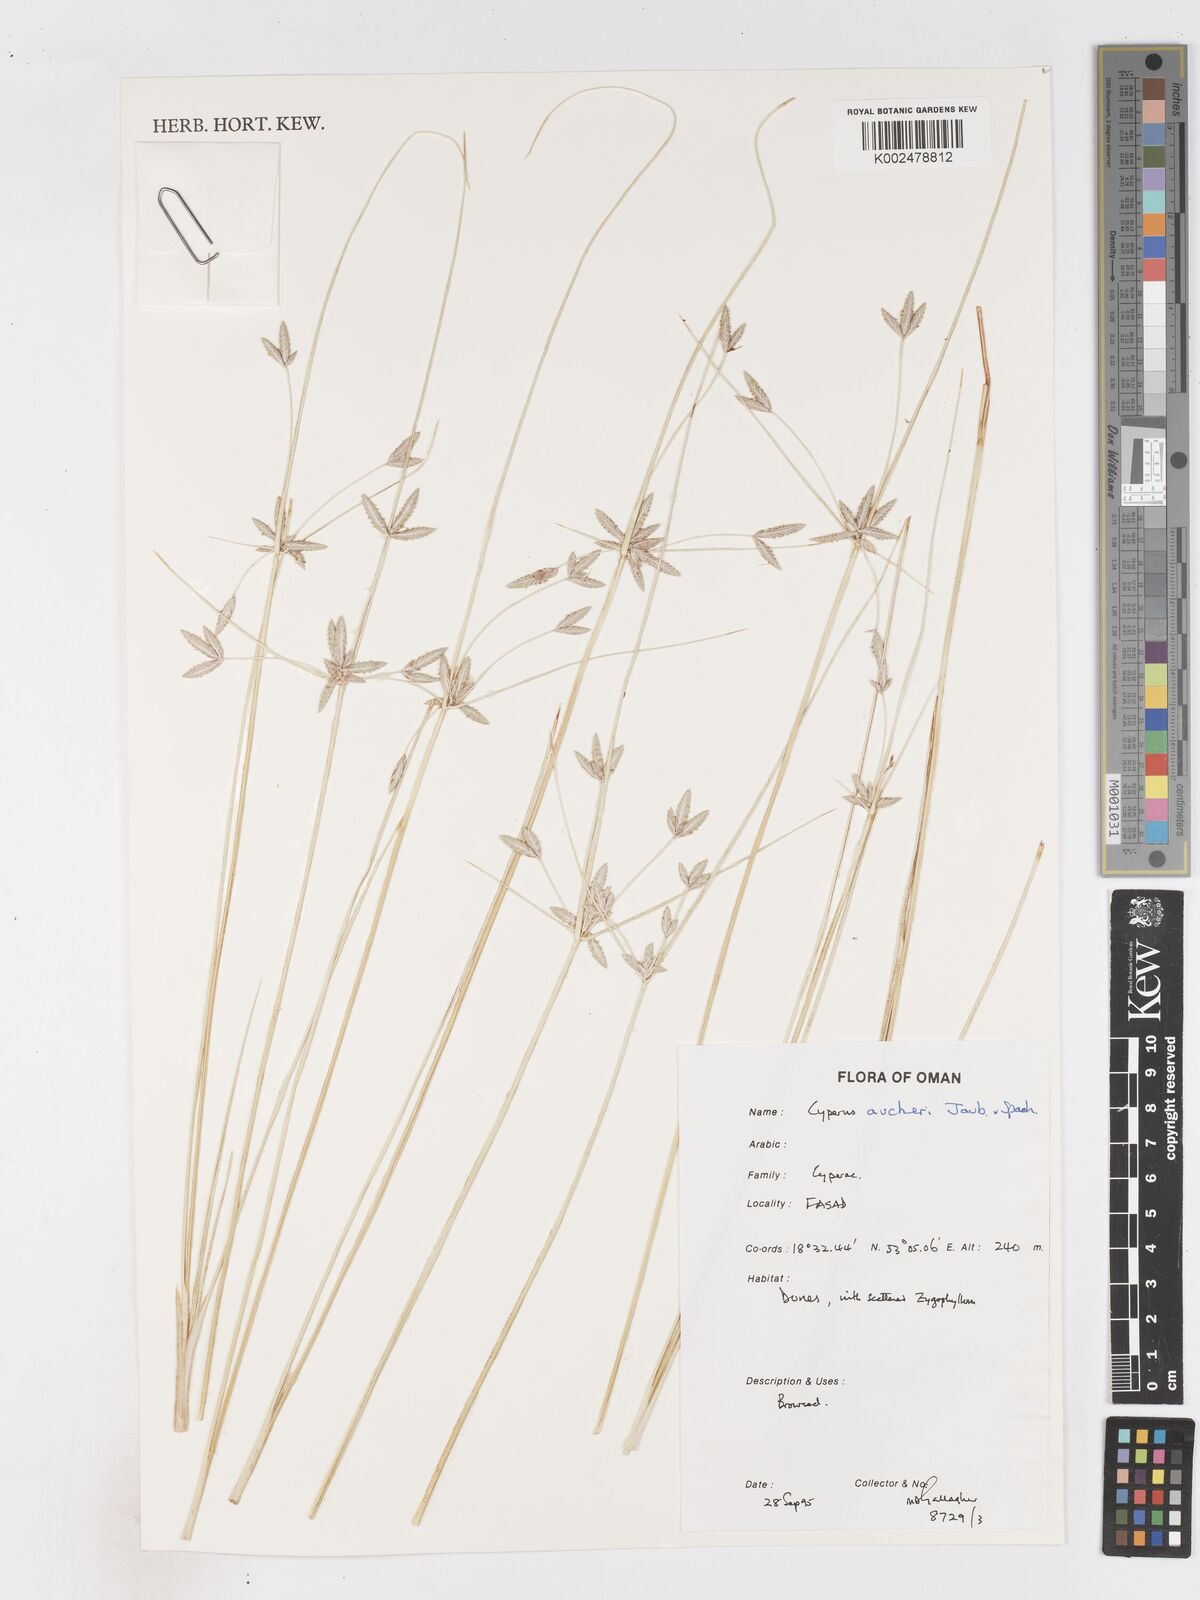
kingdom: Plantae
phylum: Tracheophyta
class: Liliopsida
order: Poales
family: Cyperaceae
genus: Cyperus
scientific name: Cyperus aucheri
